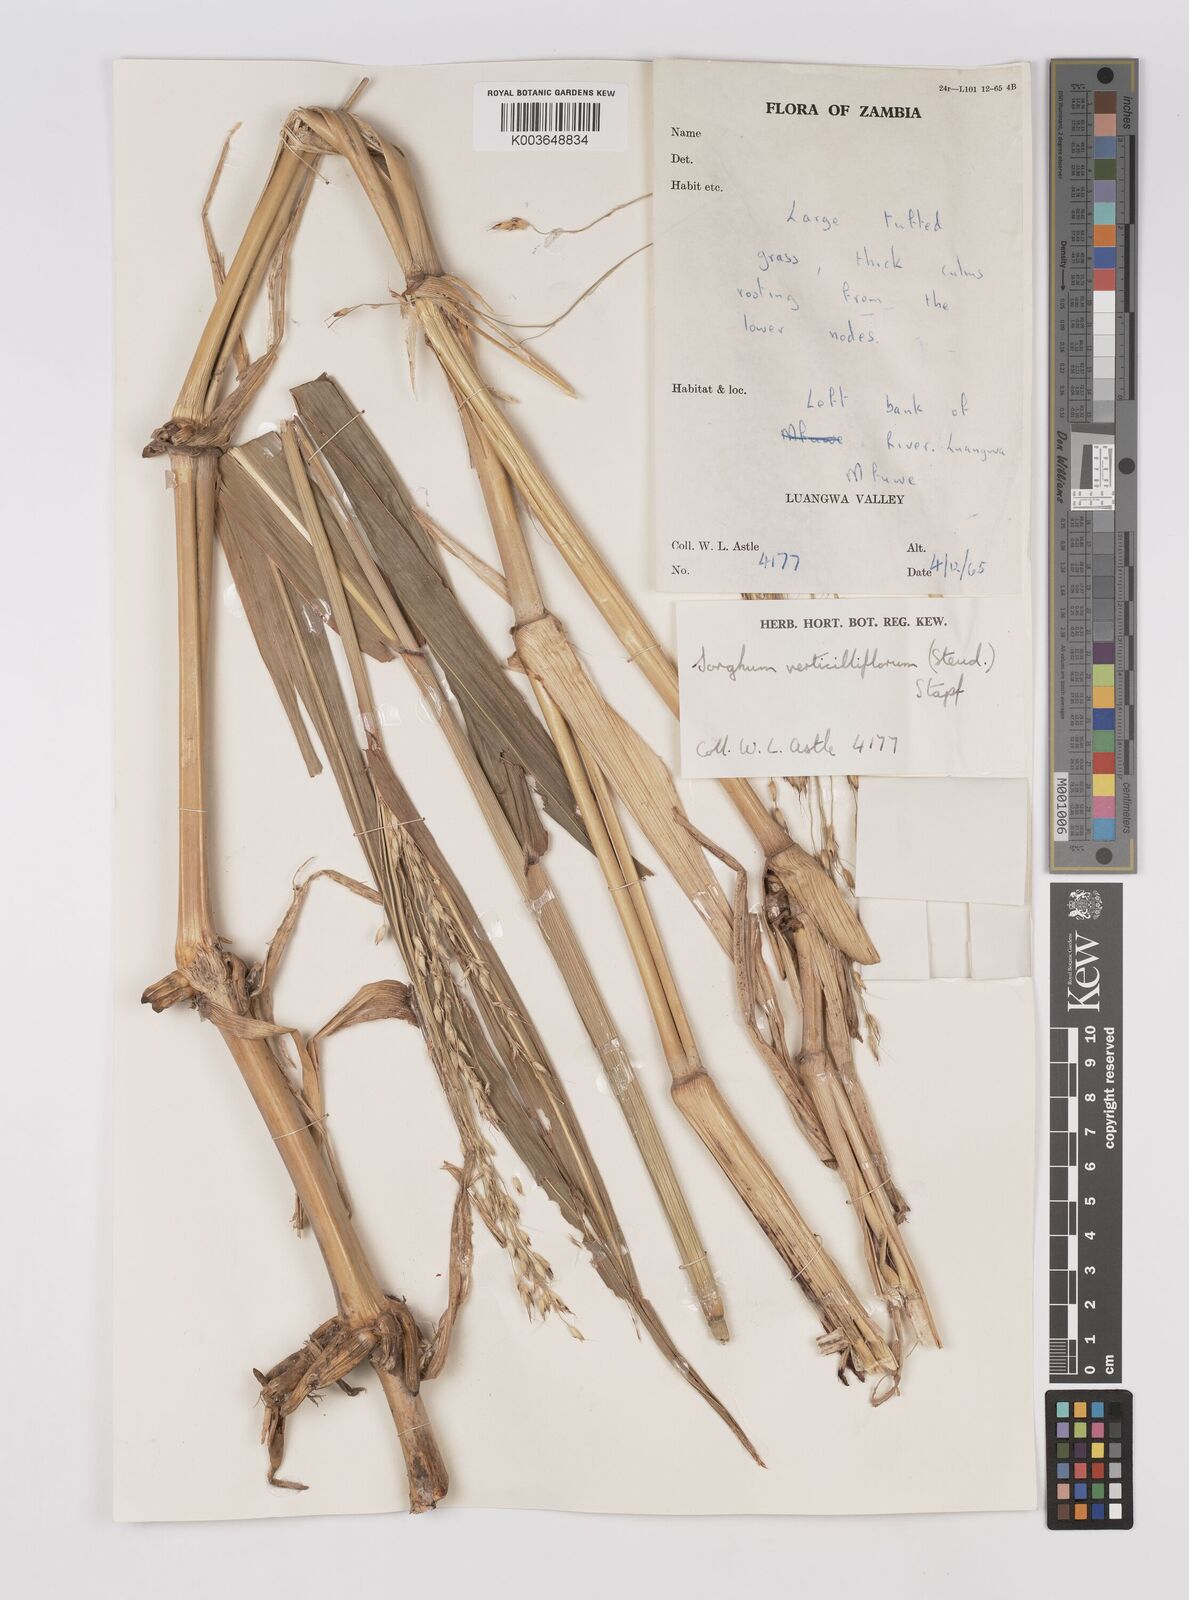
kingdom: Plantae
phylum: Tracheophyta
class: Liliopsida
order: Poales
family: Poaceae
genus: Sorghum
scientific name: Sorghum arundinaceum
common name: Sorghum
